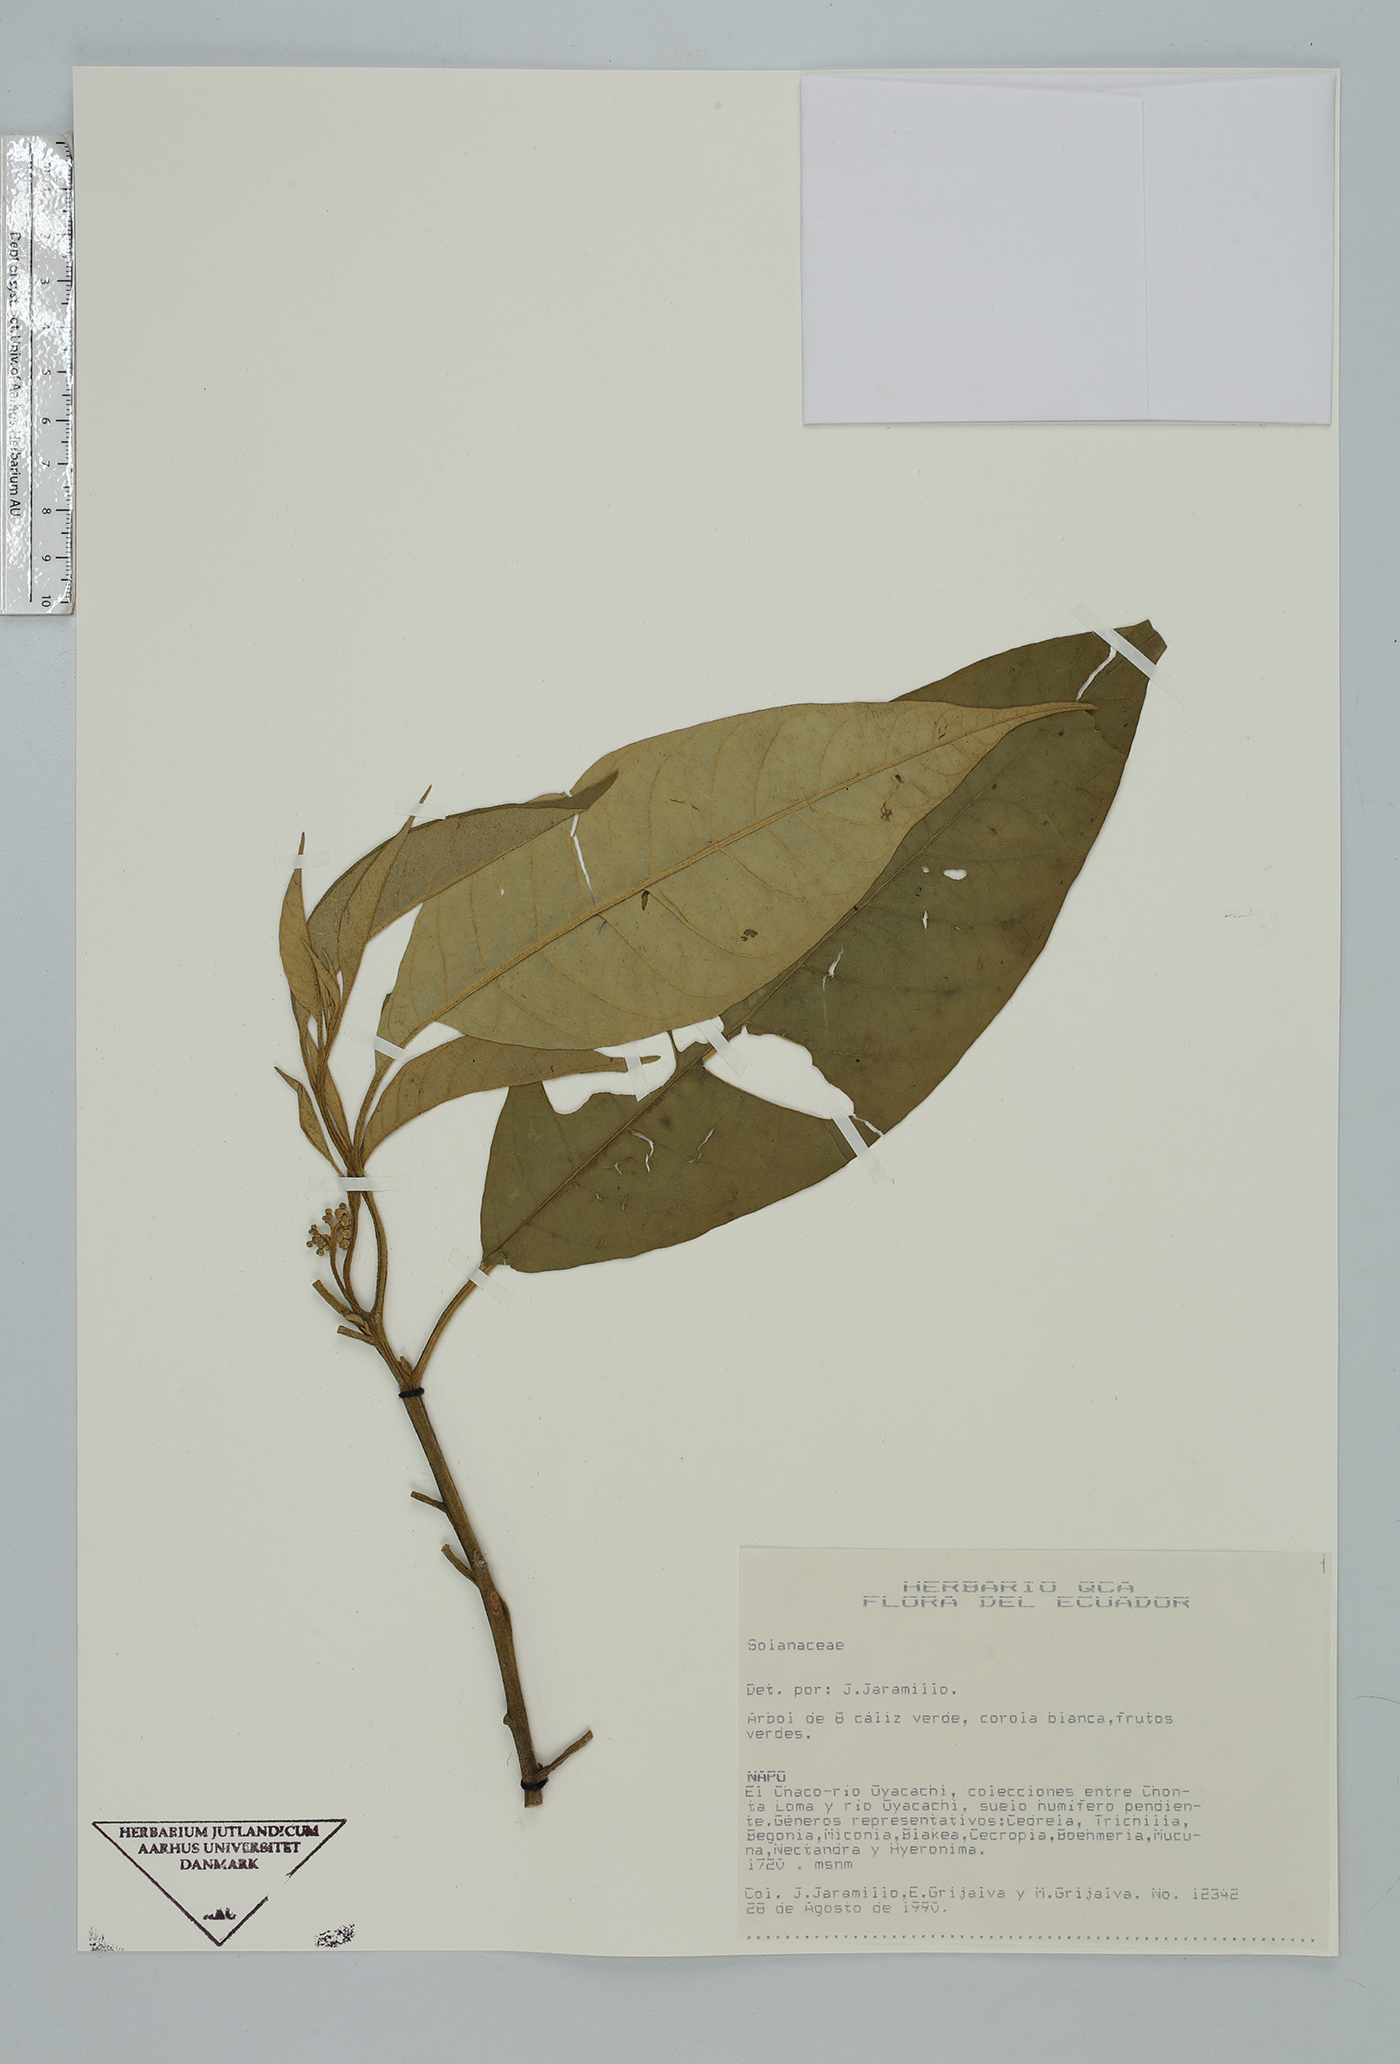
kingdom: Plantae
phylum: Tracheophyta
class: Magnoliopsida
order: Solanales
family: Solanaceae
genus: Solanum
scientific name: Solanum
